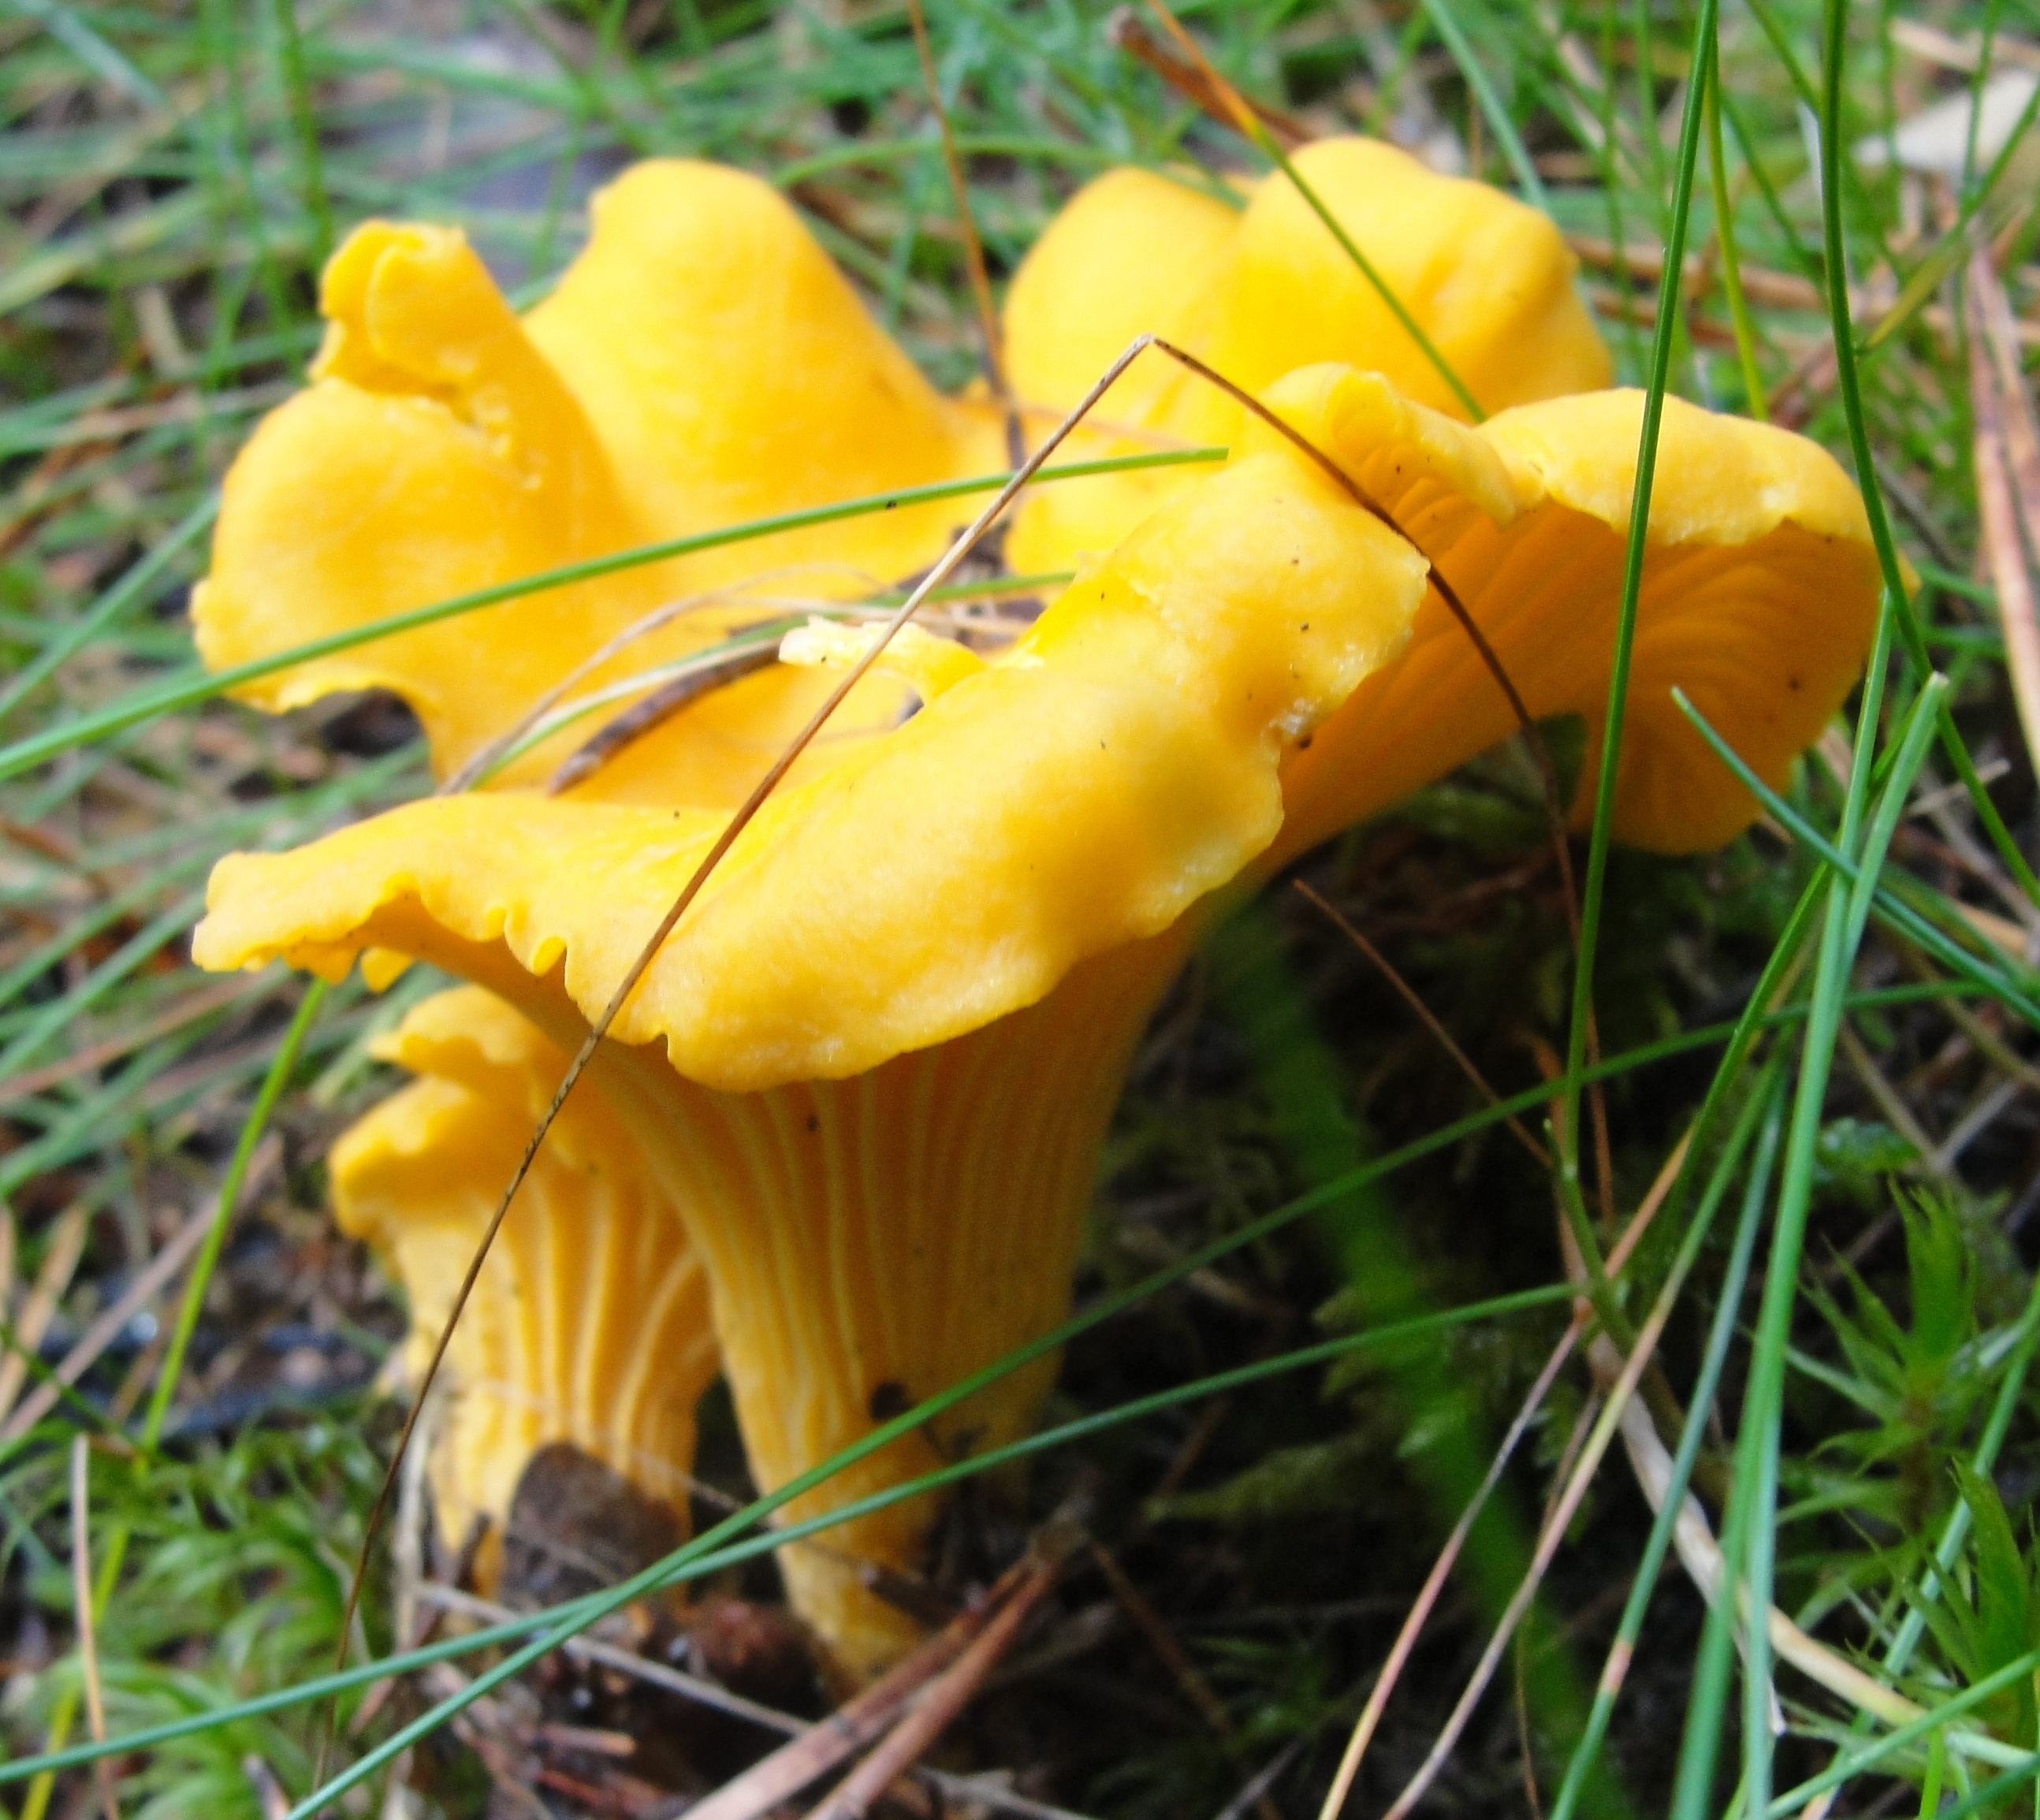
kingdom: Fungi
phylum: Basidiomycota
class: Agaricomycetes
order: Cantharellales
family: Hydnaceae
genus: Cantharellus
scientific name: Cantharellus cibarius
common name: Chanterelle
